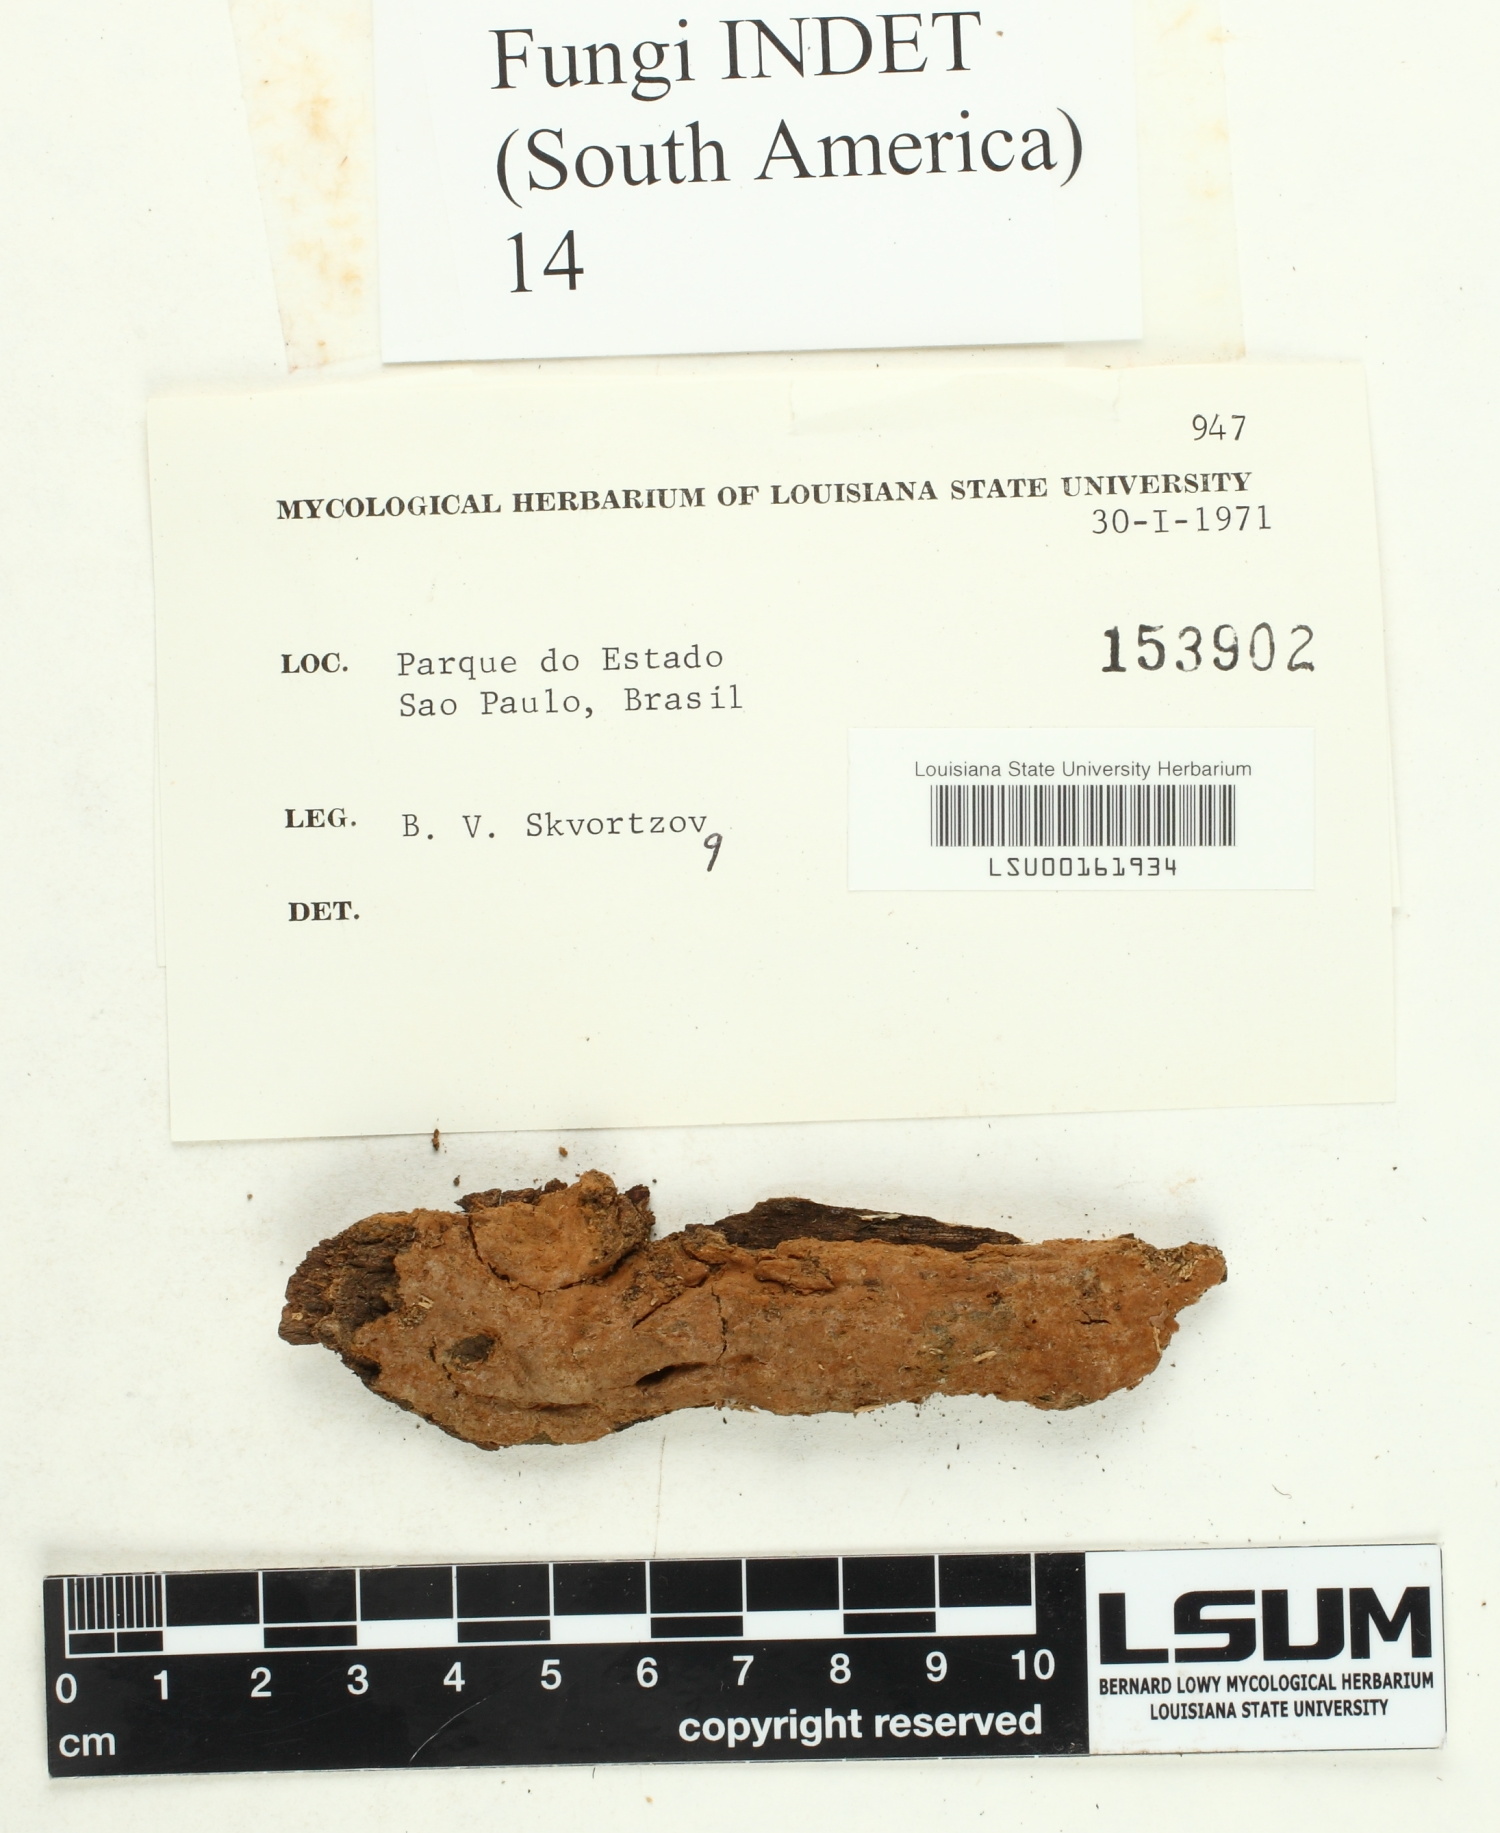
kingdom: Fungi
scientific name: Fungi
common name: Fungi
